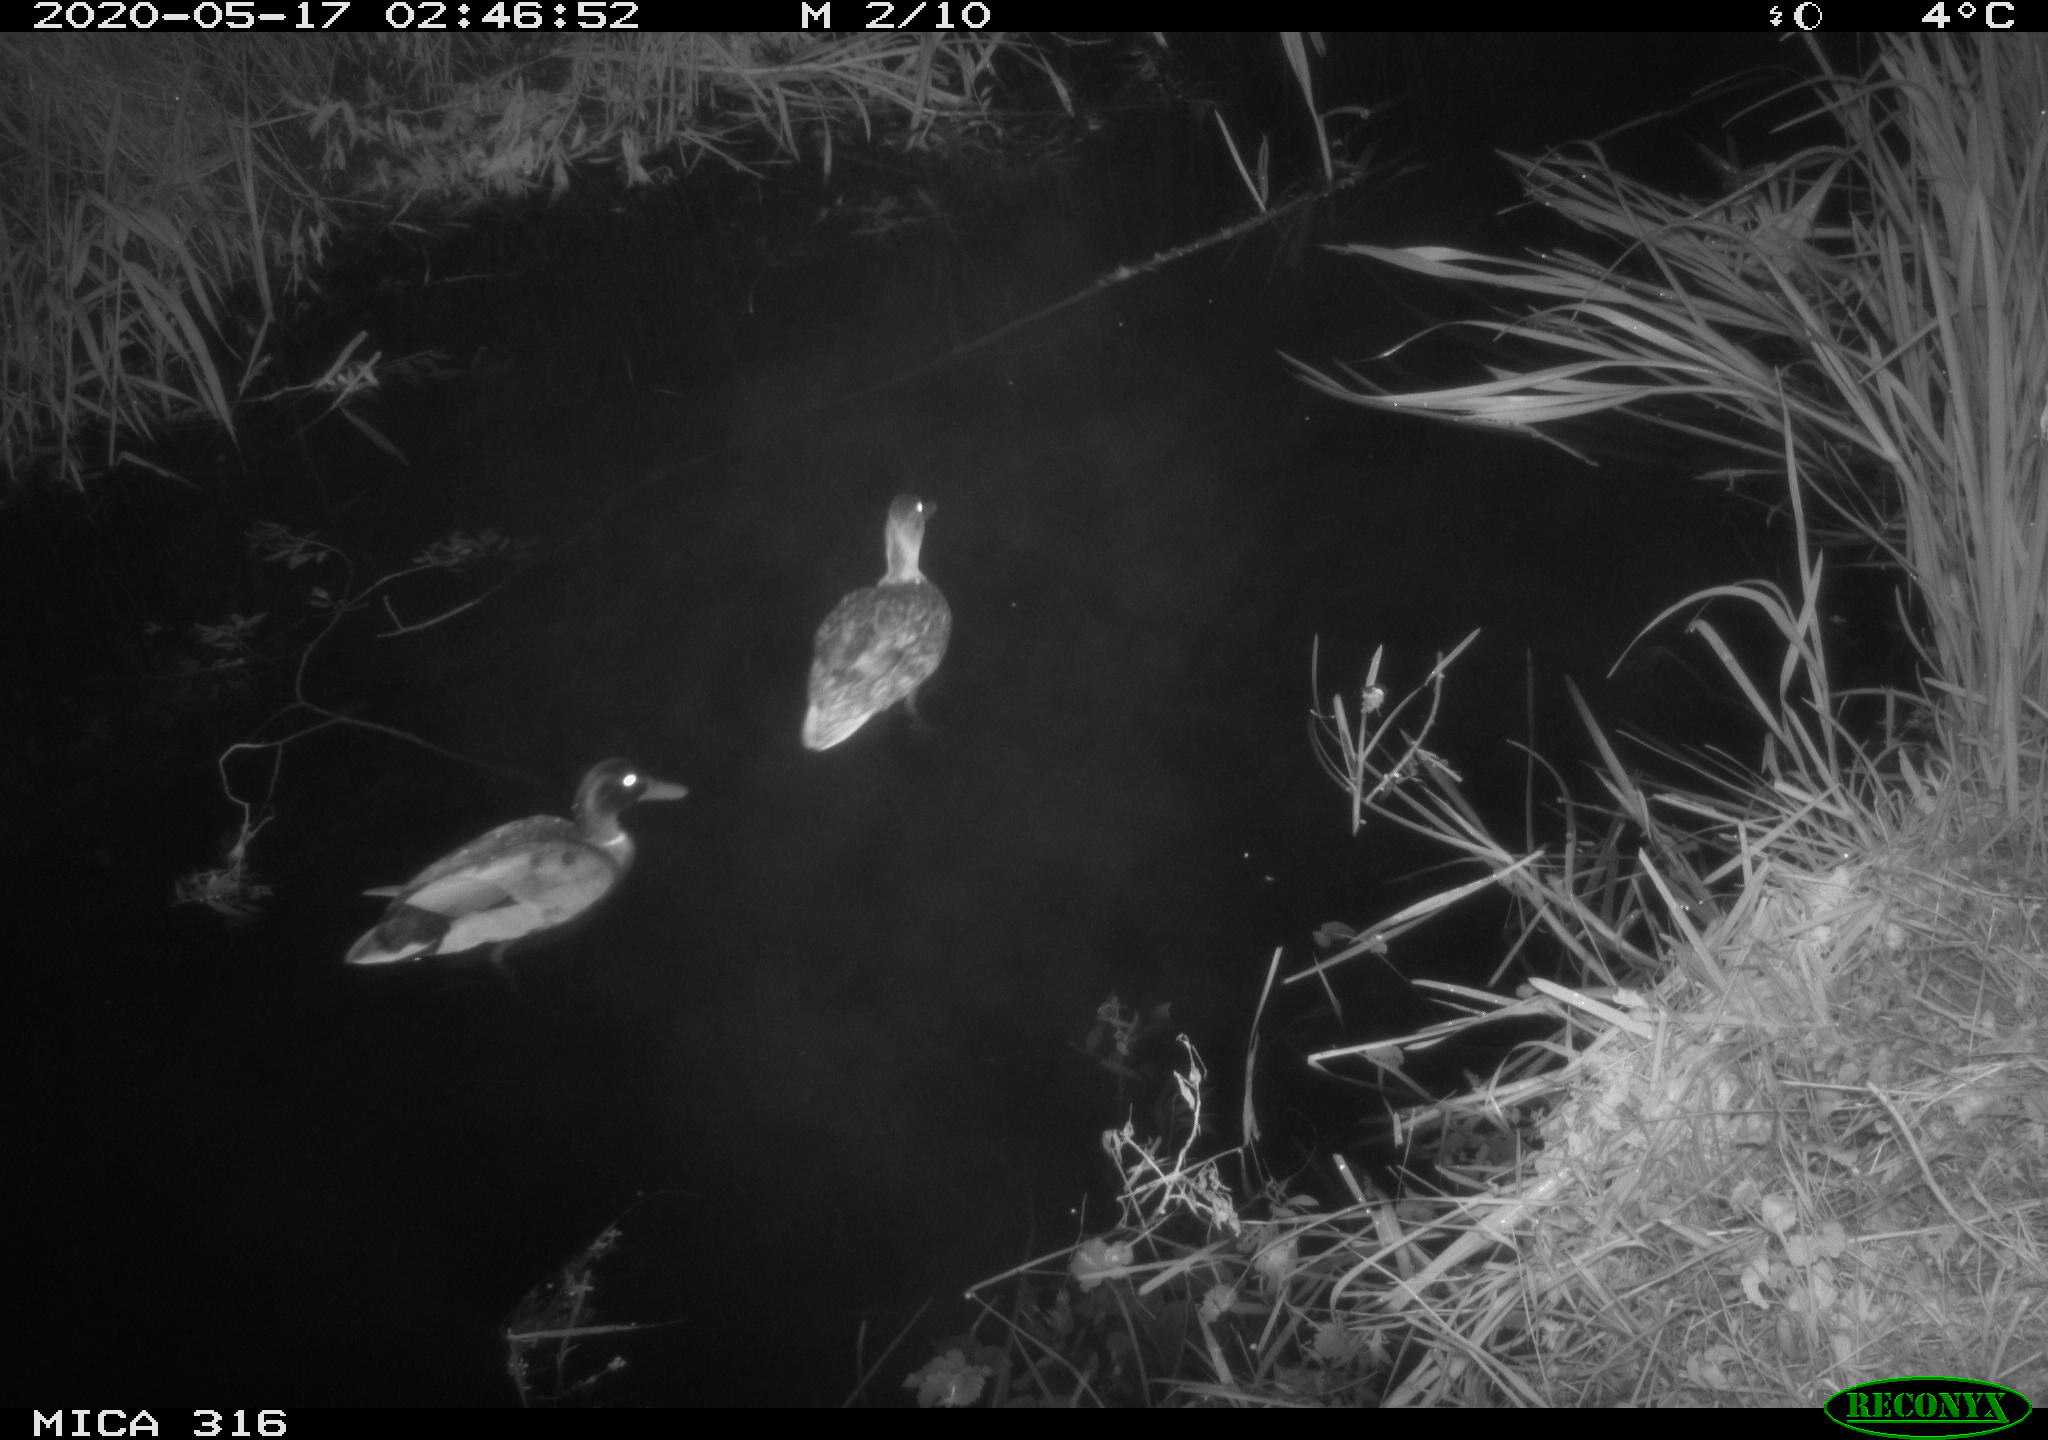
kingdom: Animalia
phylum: Chordata
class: Aves
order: Anseriformes
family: Anatidae
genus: Anas
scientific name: Anas platyrhynchos
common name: Mallard
